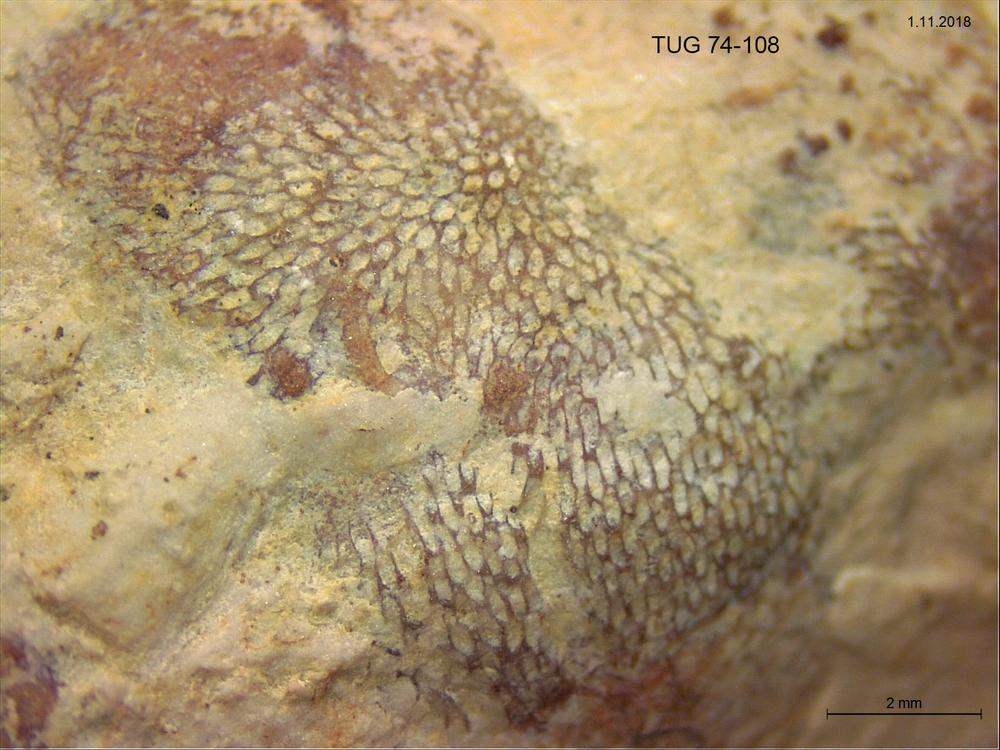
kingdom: Animalia
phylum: Brachiopoda
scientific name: Brachiopoda
